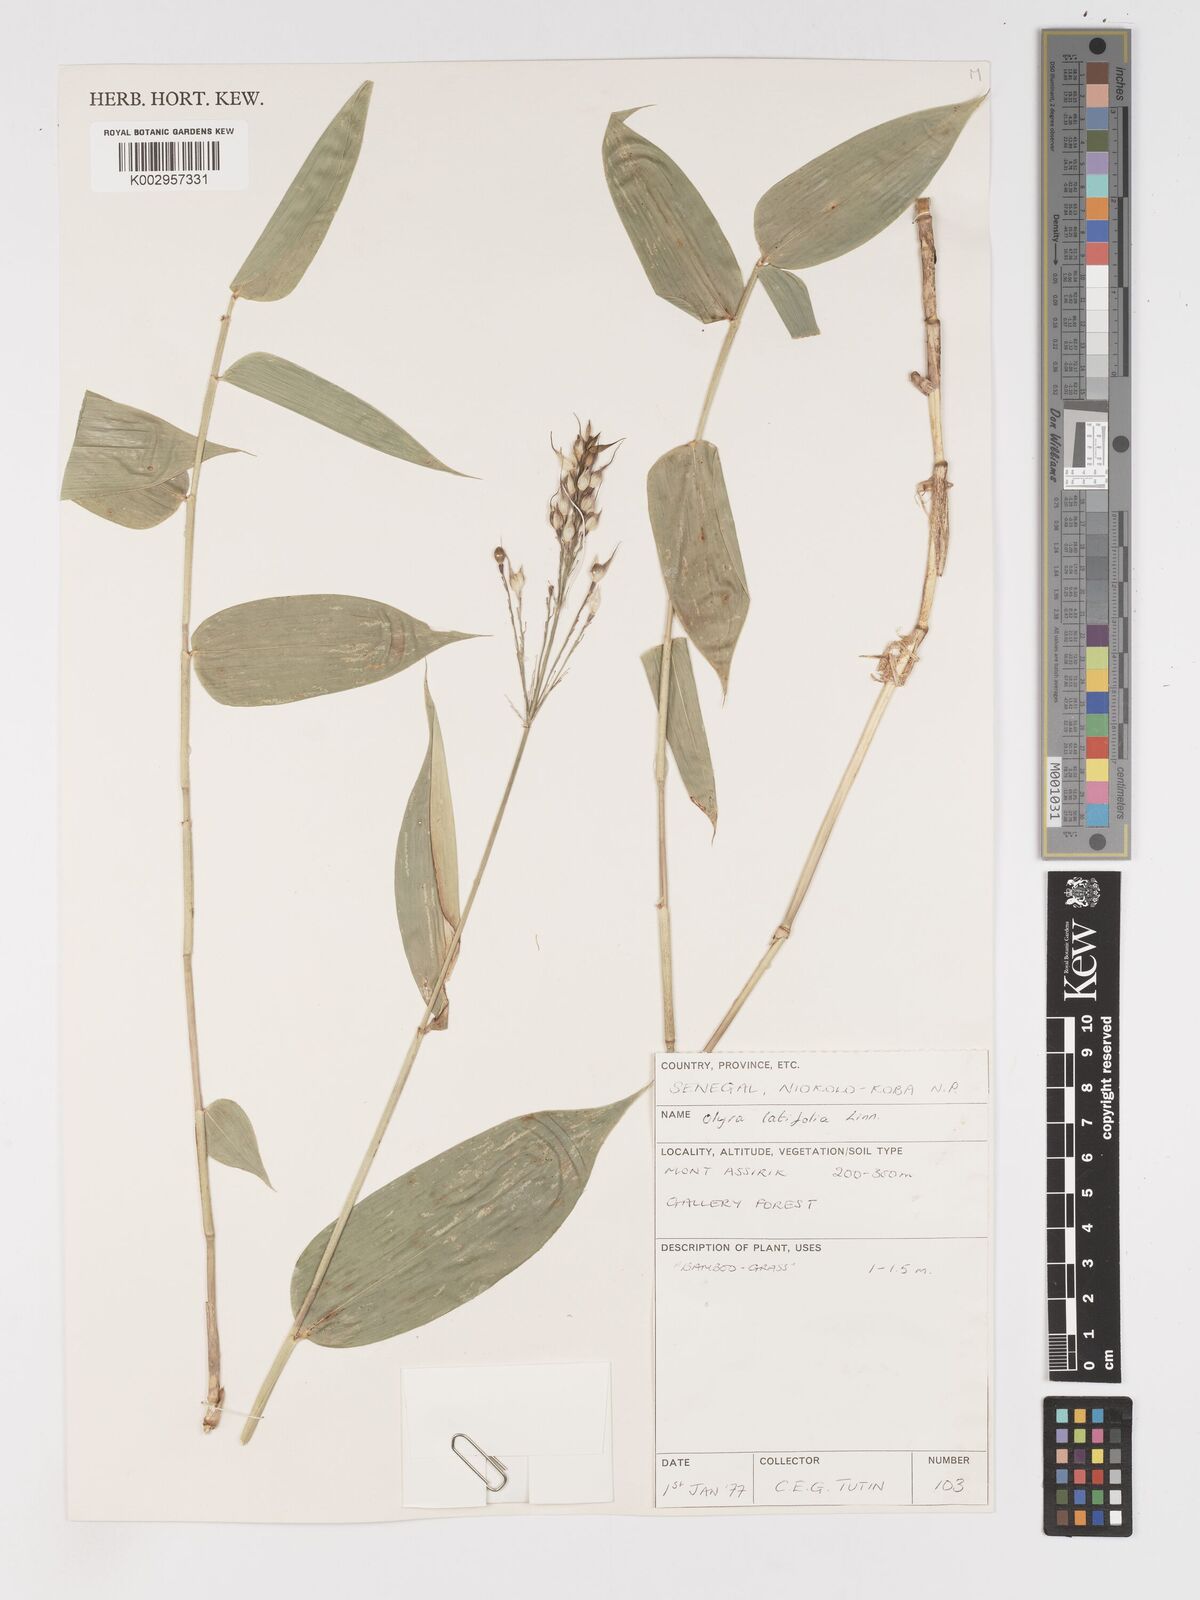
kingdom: Plantae
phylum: Tracheophyta
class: Liliopsida
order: Poales
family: Poaceae
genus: Olyra
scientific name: Olyra latifolia
